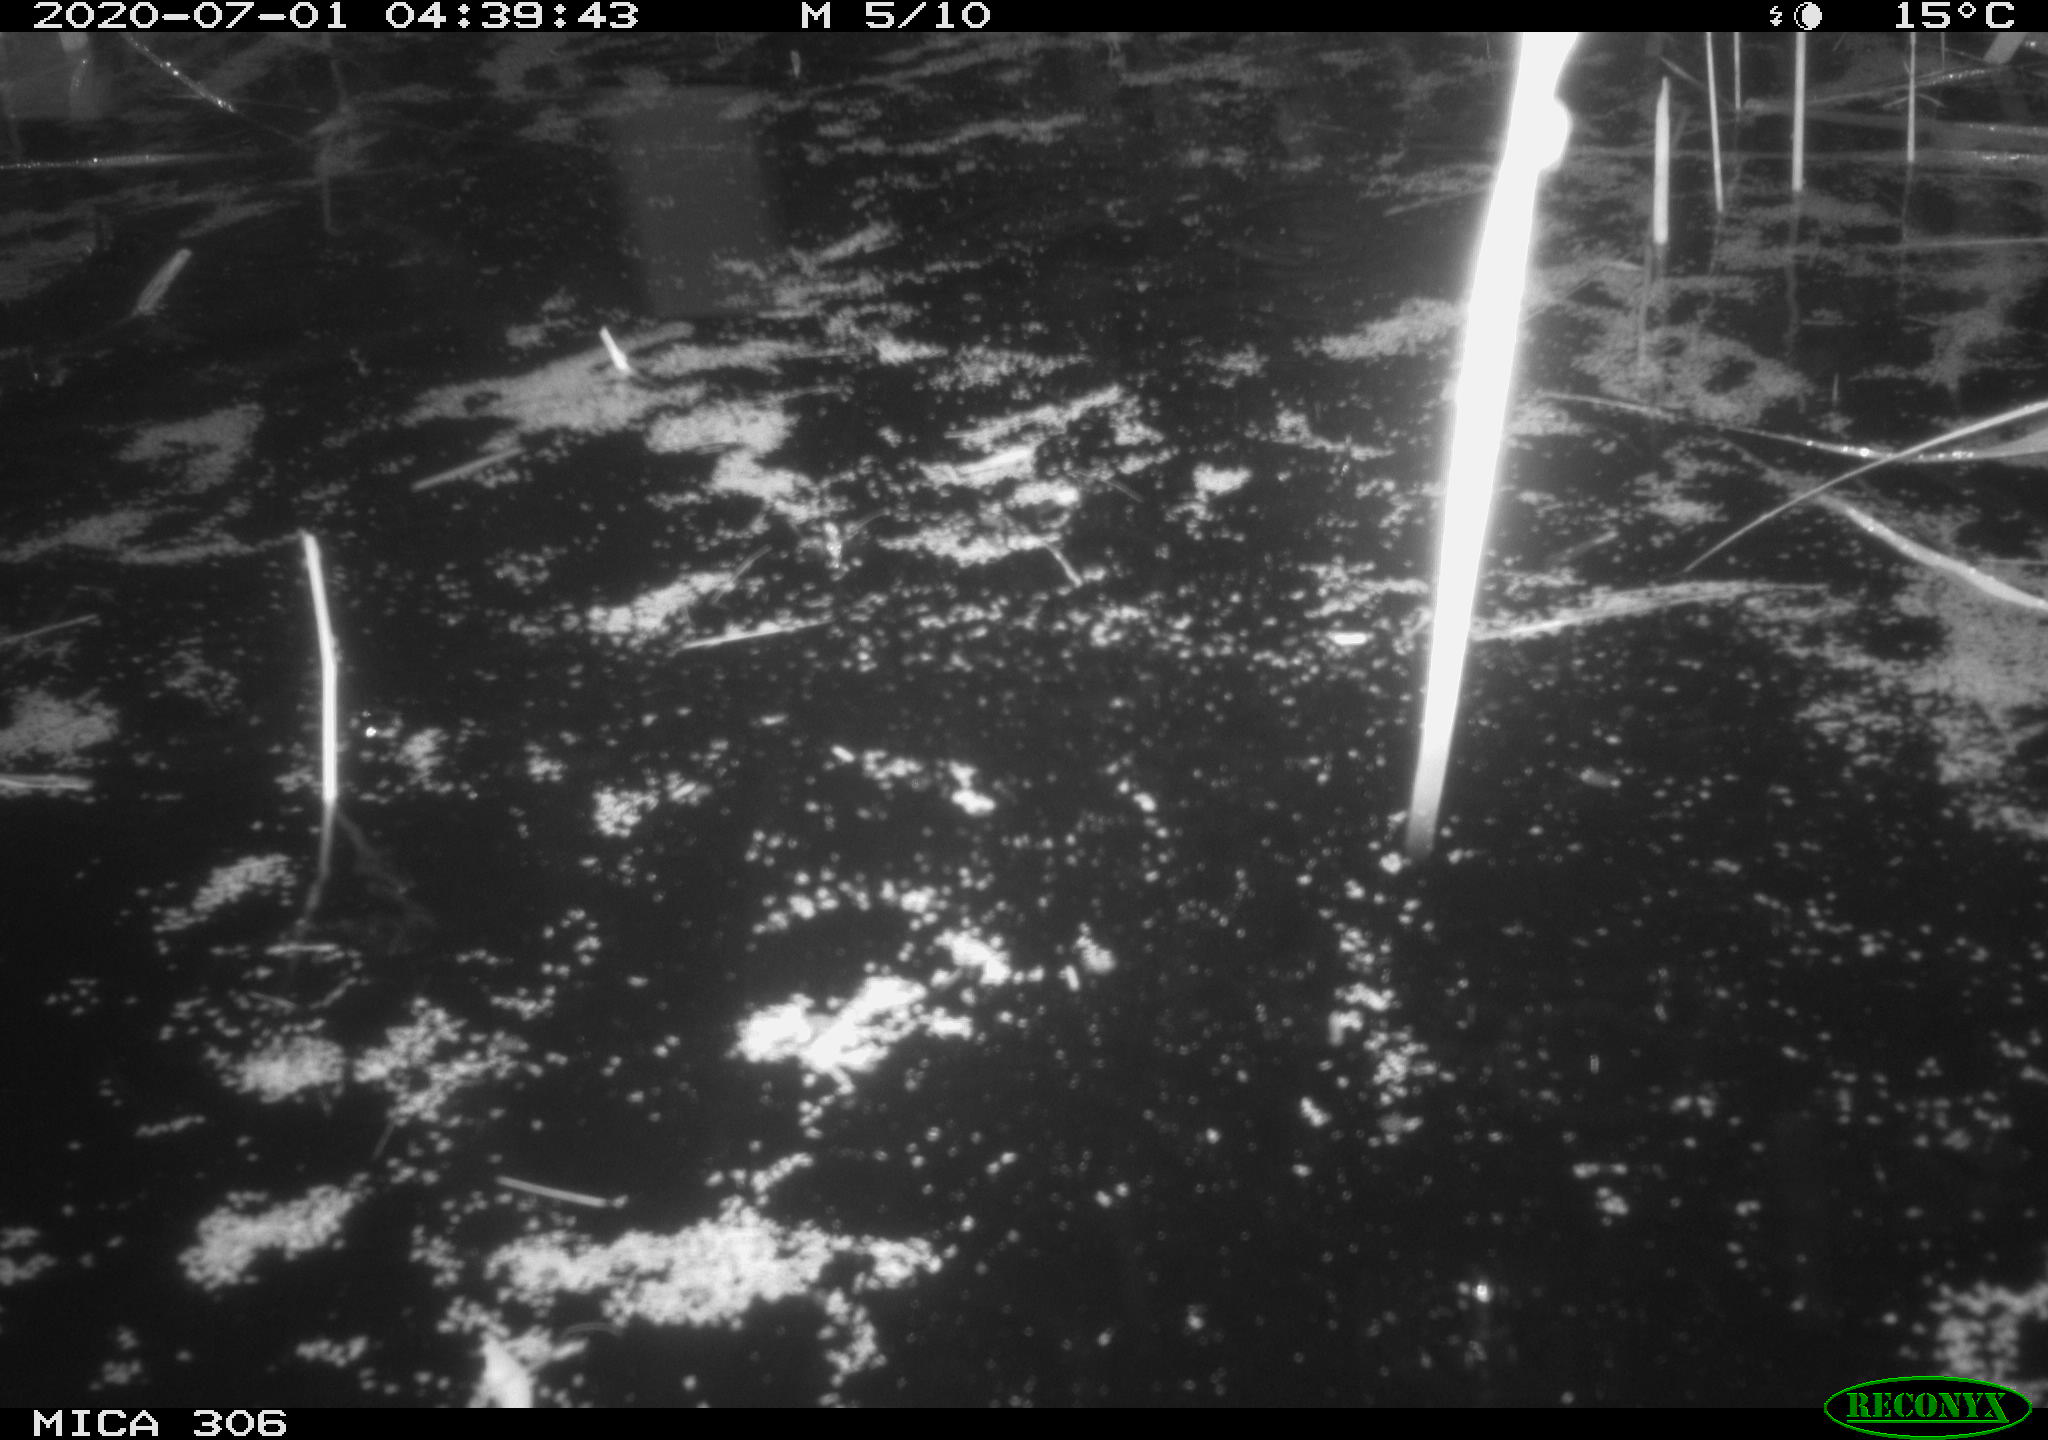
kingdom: Animalia
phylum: Chordata
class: Mammalia
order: Rodentia
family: Muridae
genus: Rattus
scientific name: Rattus norvegicus
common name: Brown rat
